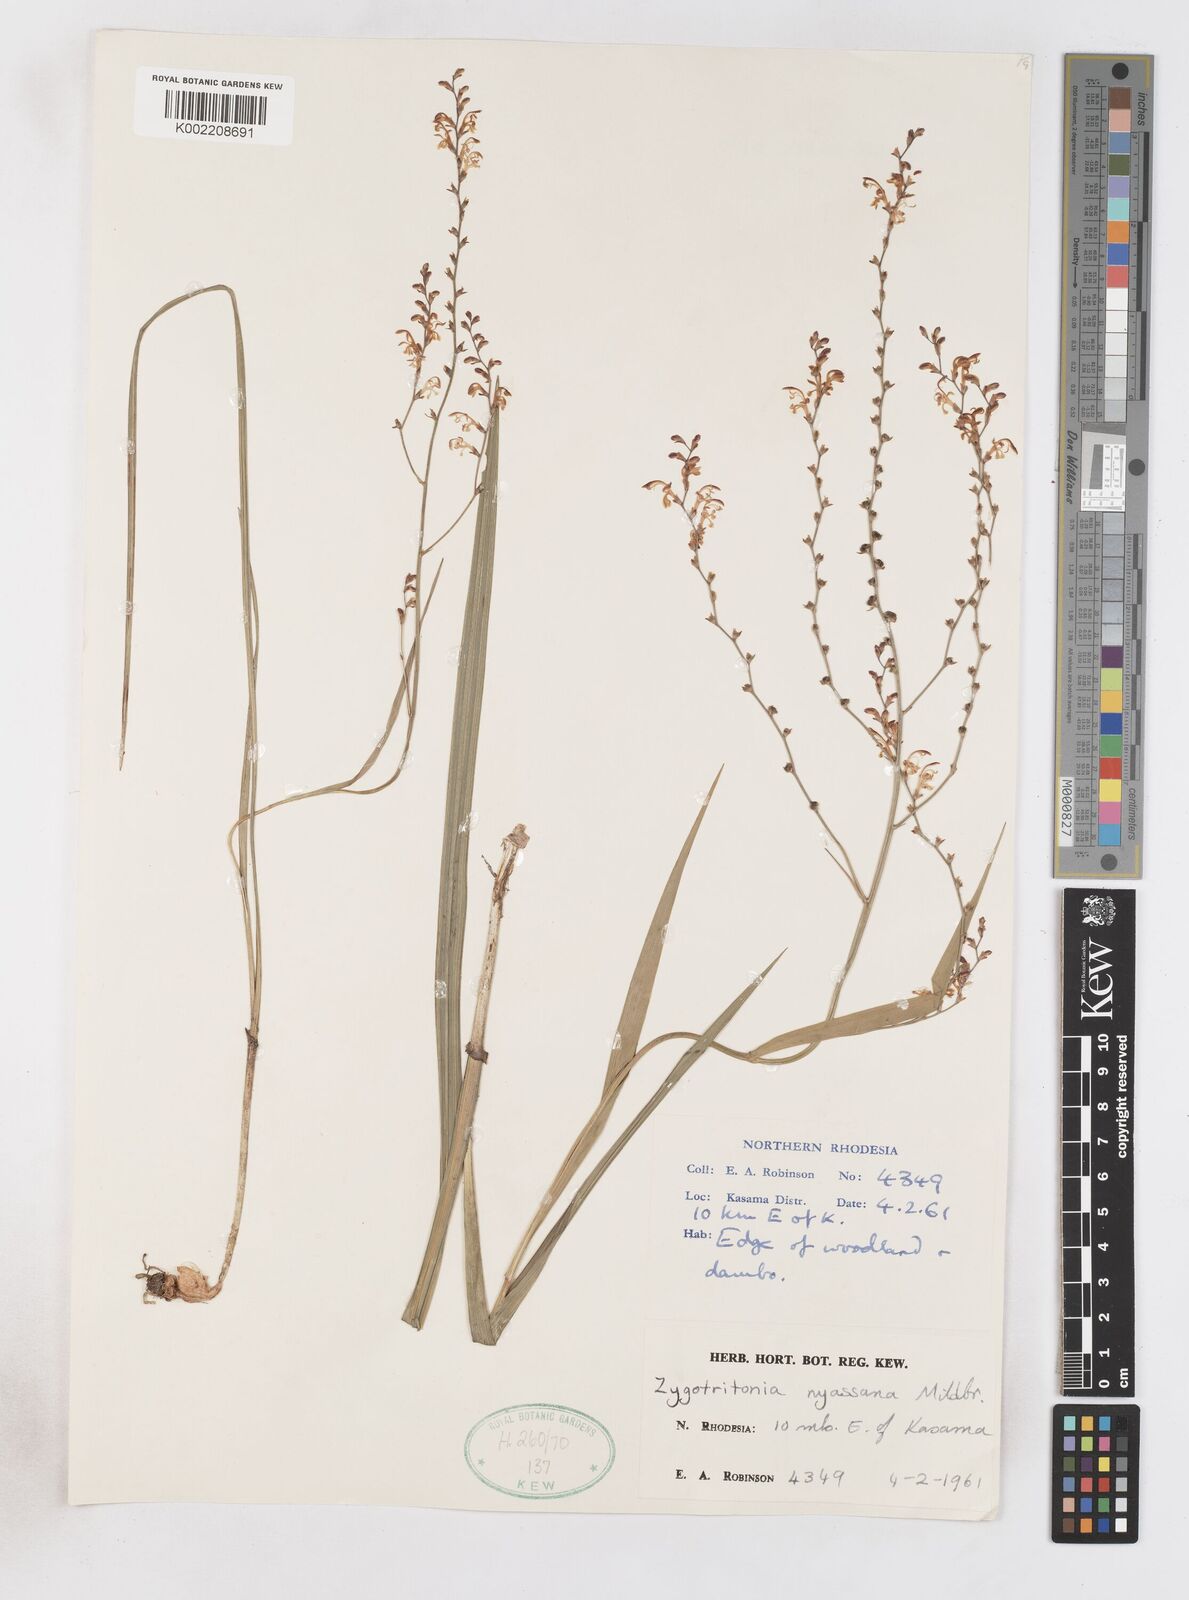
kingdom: Plantae
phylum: Tracheophyta
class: Liliopsida
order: Asparagales
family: Iridaceae
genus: Zygotritonia
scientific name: Zygotritonia nyassana
